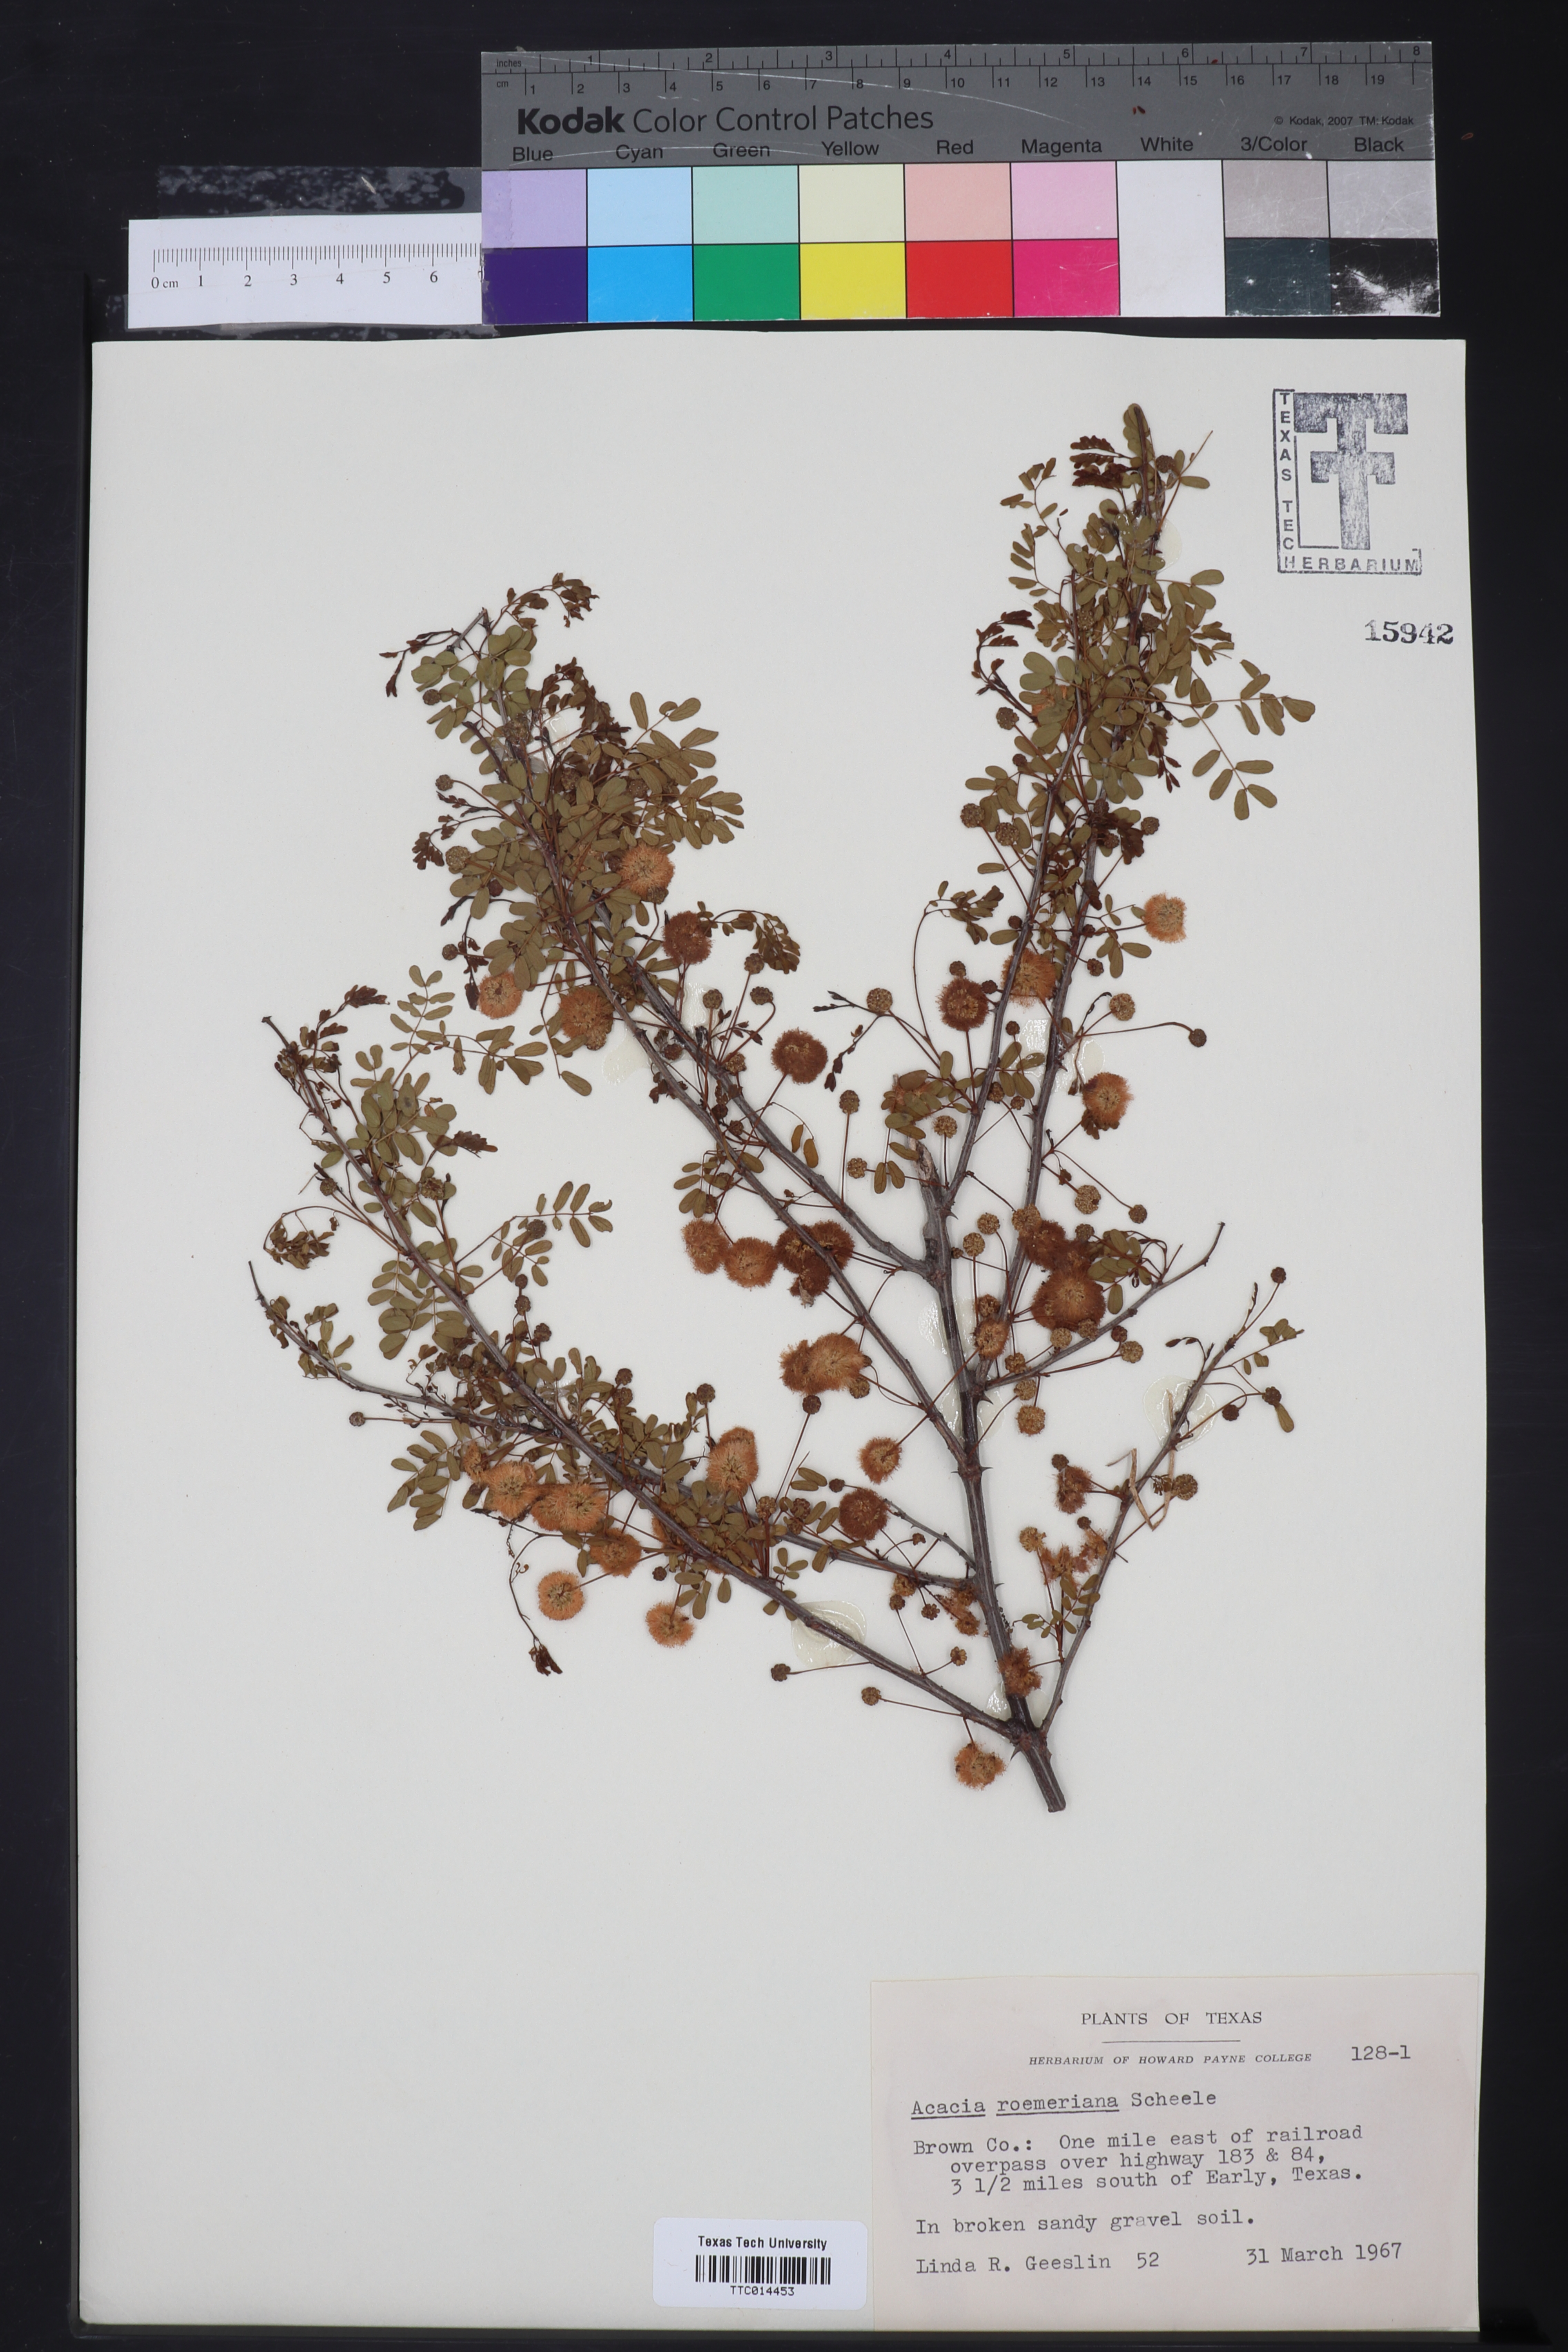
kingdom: Plantae
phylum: Tracheophyta
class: Magnoliopsida
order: Fabales
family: Fabaceae
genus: Senegalia
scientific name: Senegalia roemeriana
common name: Roemer's acacia
